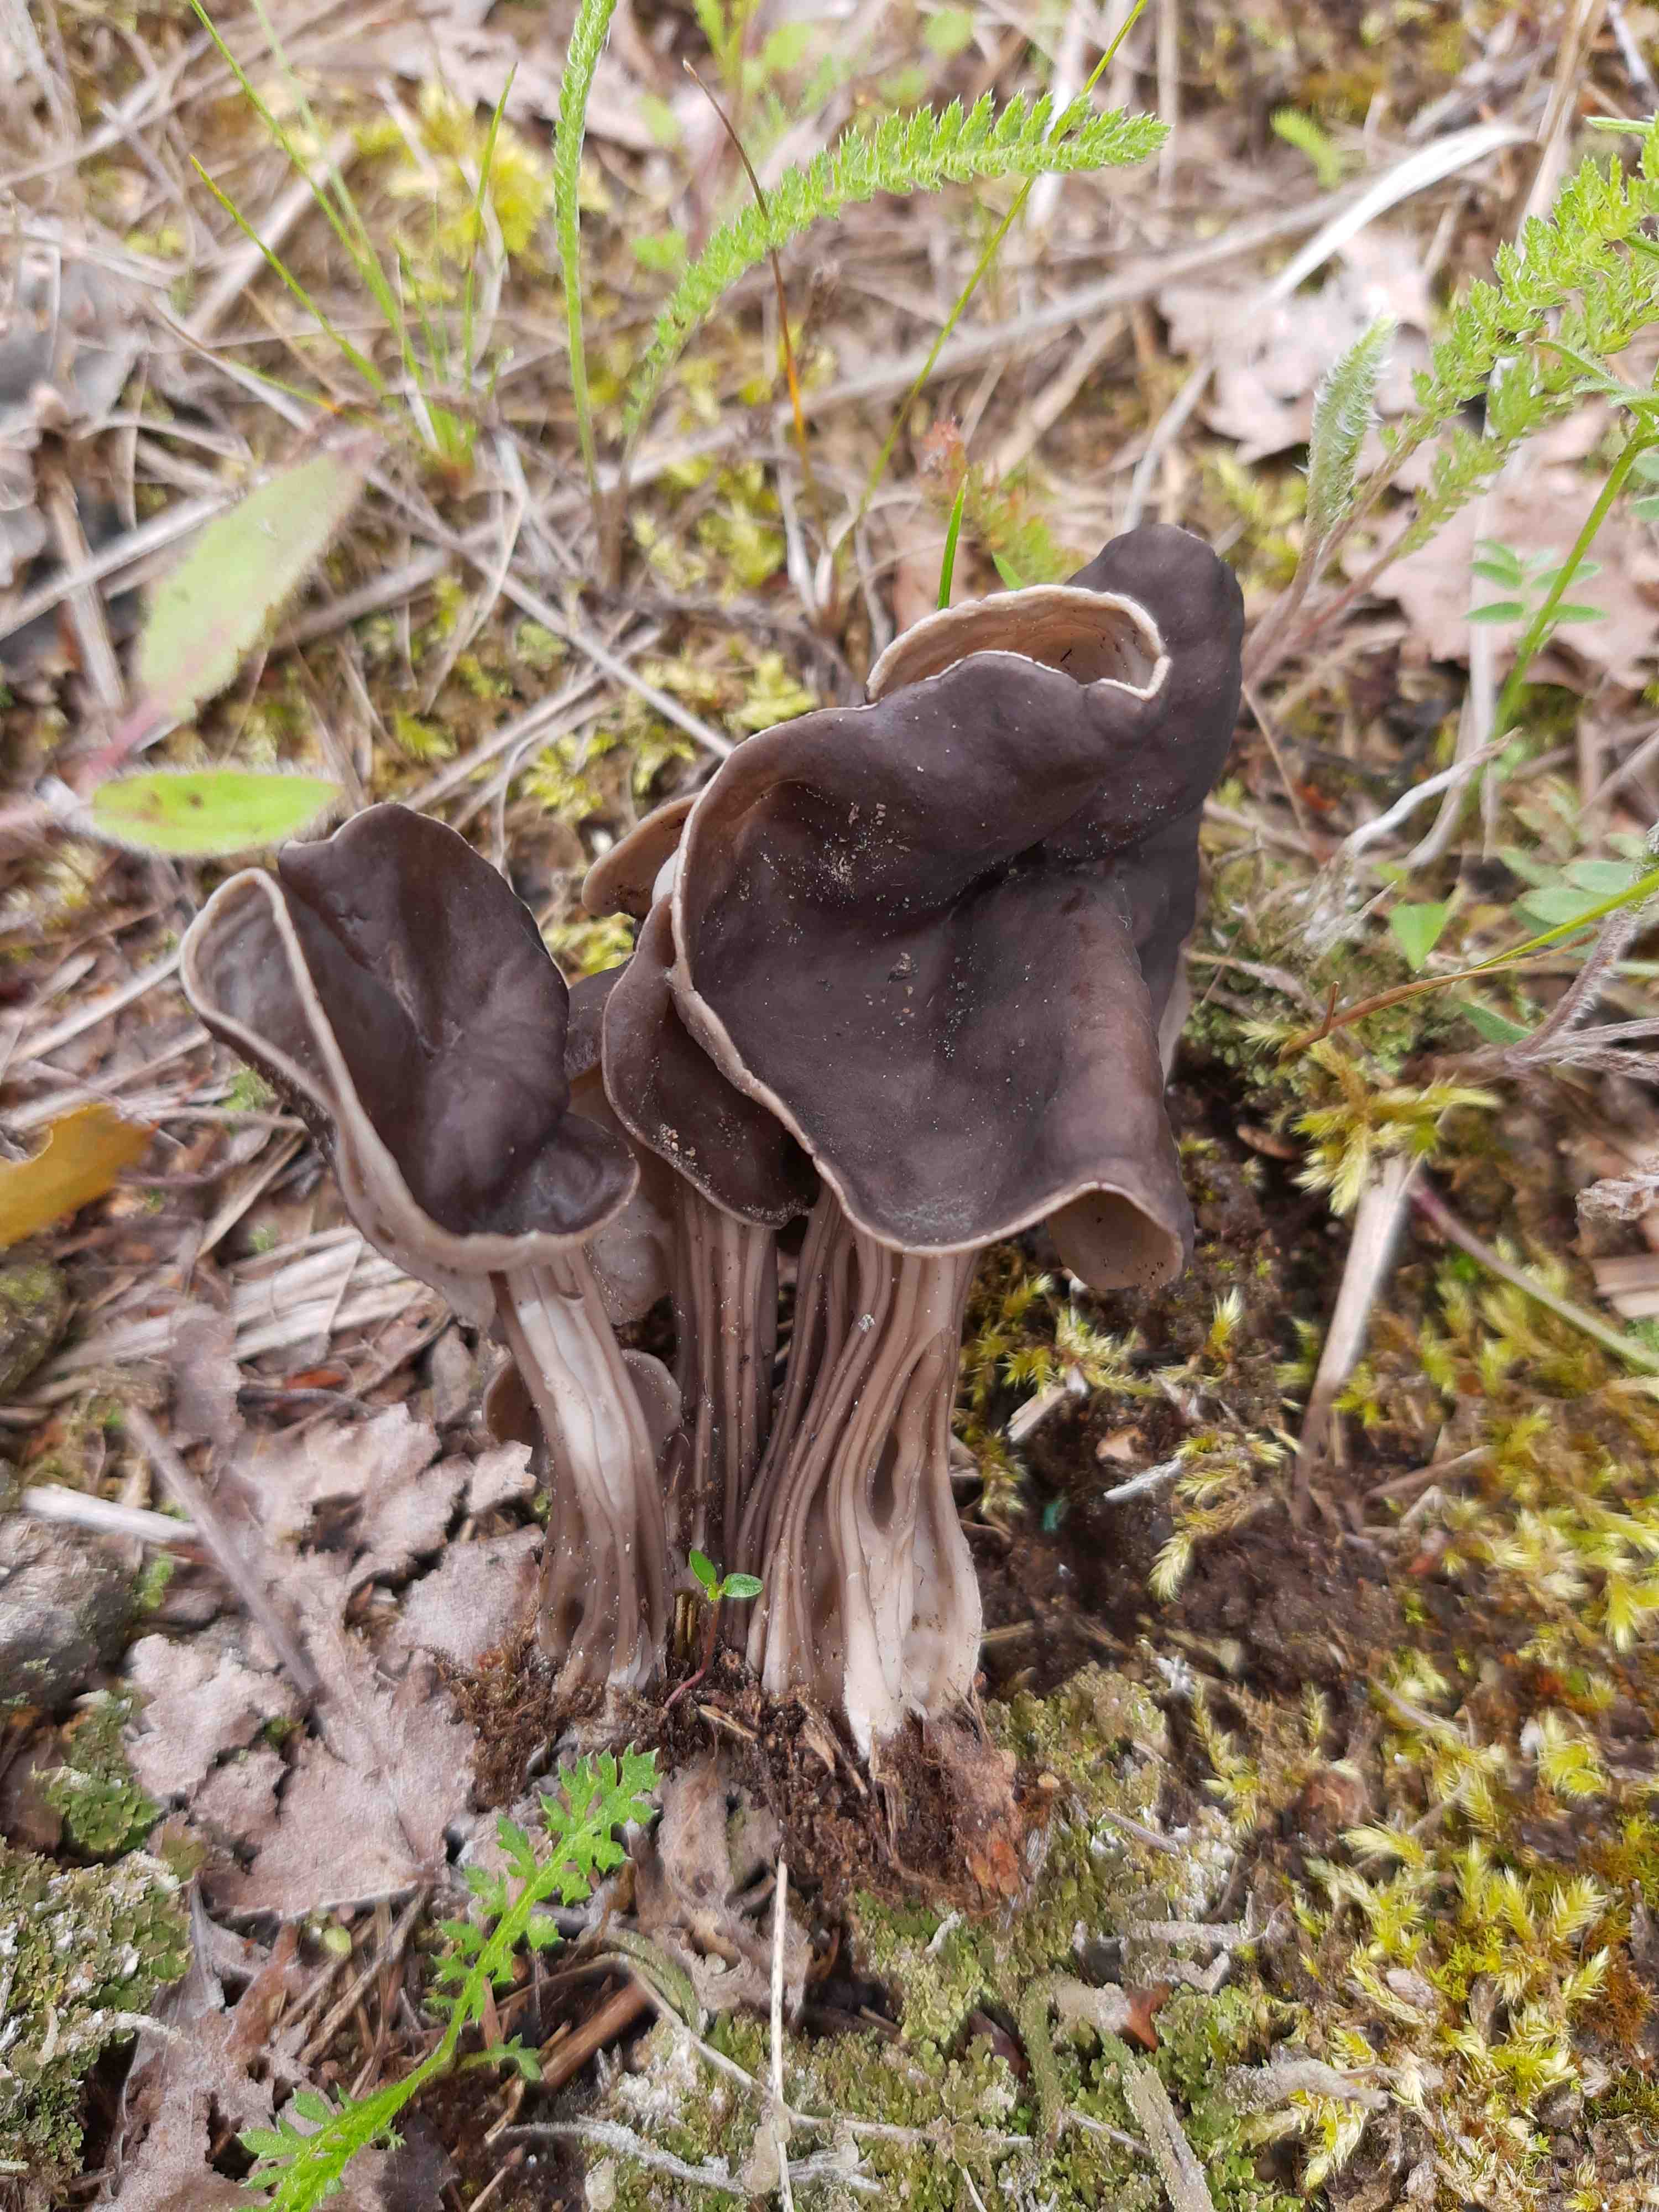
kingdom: Fungi
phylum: Ascomycota
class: Pezizomycetes
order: Pezizales
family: Helvellaceae
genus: Helvella
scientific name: Helvella
